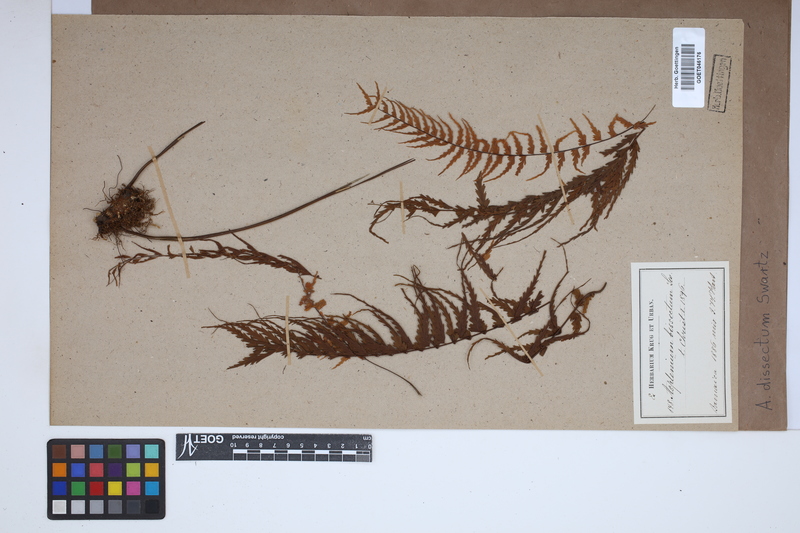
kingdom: Plantae
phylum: Tracheophyta
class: Polypodiopsida
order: Polypodiales
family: Aspleniaceae
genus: Asplenium
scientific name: Asplenium dissectum
